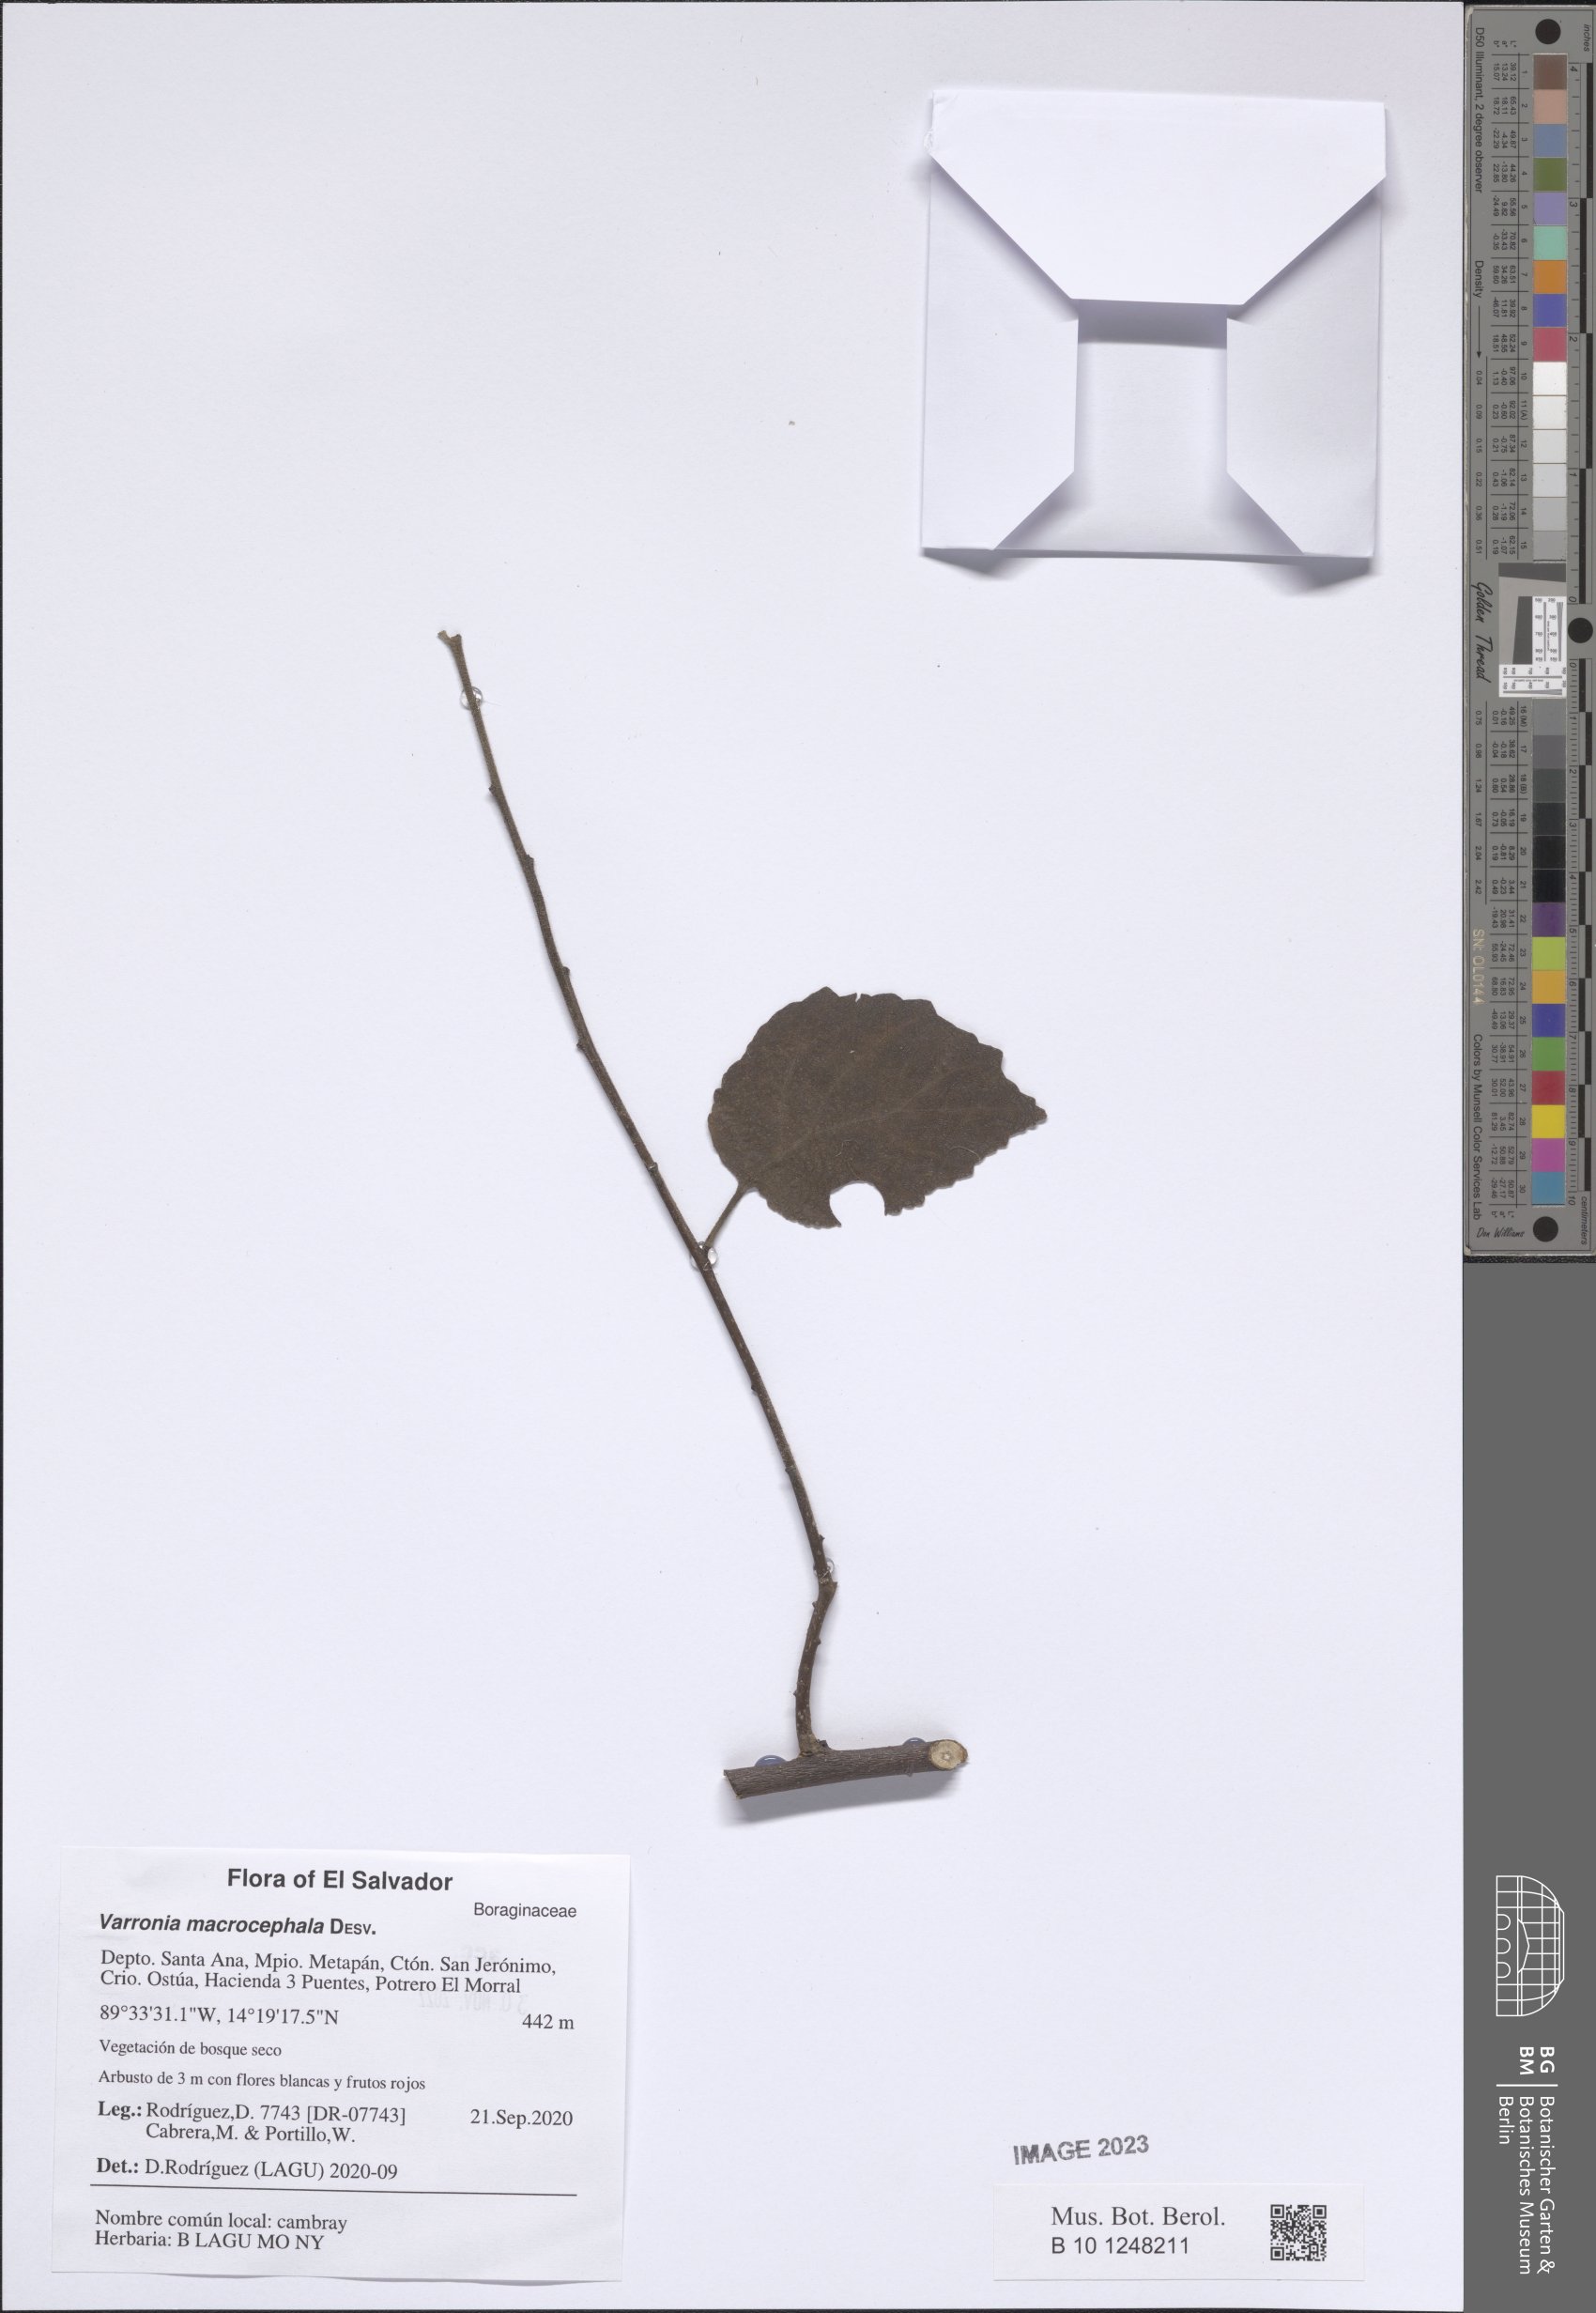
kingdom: Plantae
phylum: Tracheophyta
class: Magnoliopsida
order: Boraginales
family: Cordiaceae
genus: Varronia
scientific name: Varronia macrocephala
